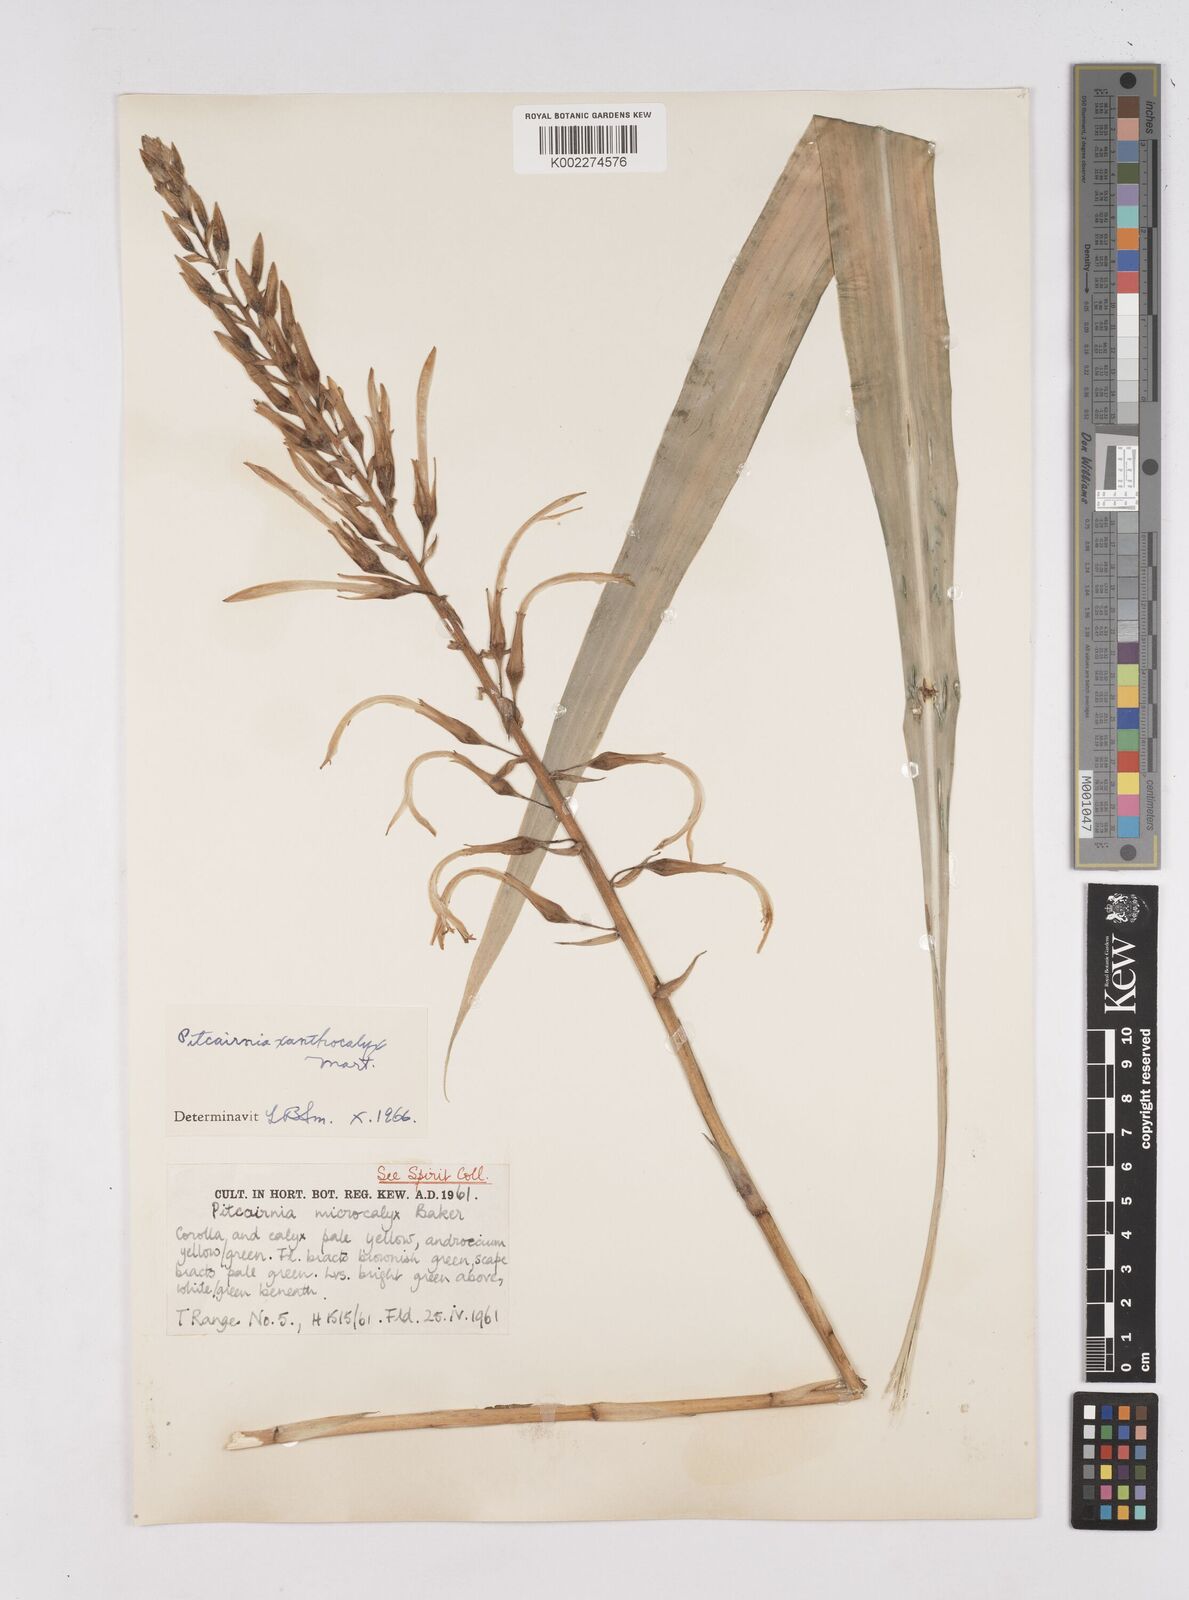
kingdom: Plantae
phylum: Tracheophyta
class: Liliopsida
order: Poales
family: Bromeliaceae
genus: Pitcairnia
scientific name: Pitcairnia xanthocalyx
